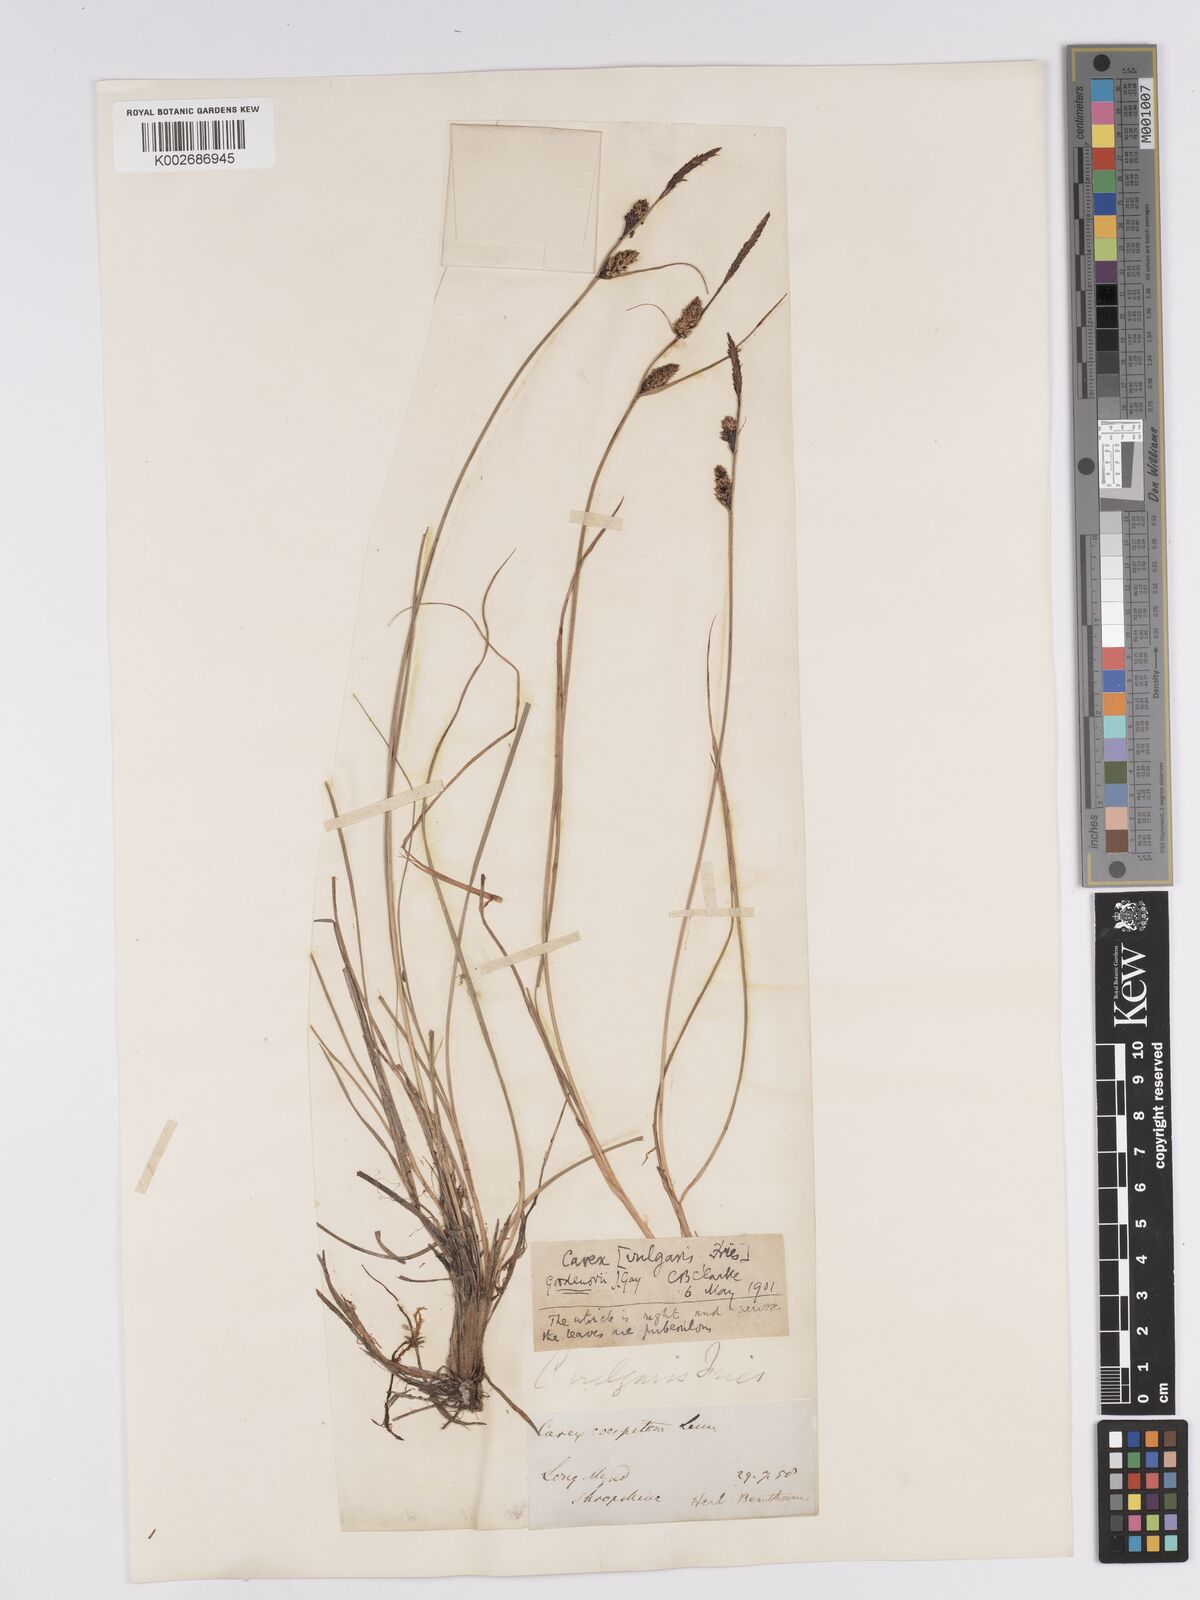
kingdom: Plantae
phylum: Tracheophyta
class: Liliopsida
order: Poales
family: Cyperaceae
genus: Carex
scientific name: Carex nigra
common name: Common sedge
